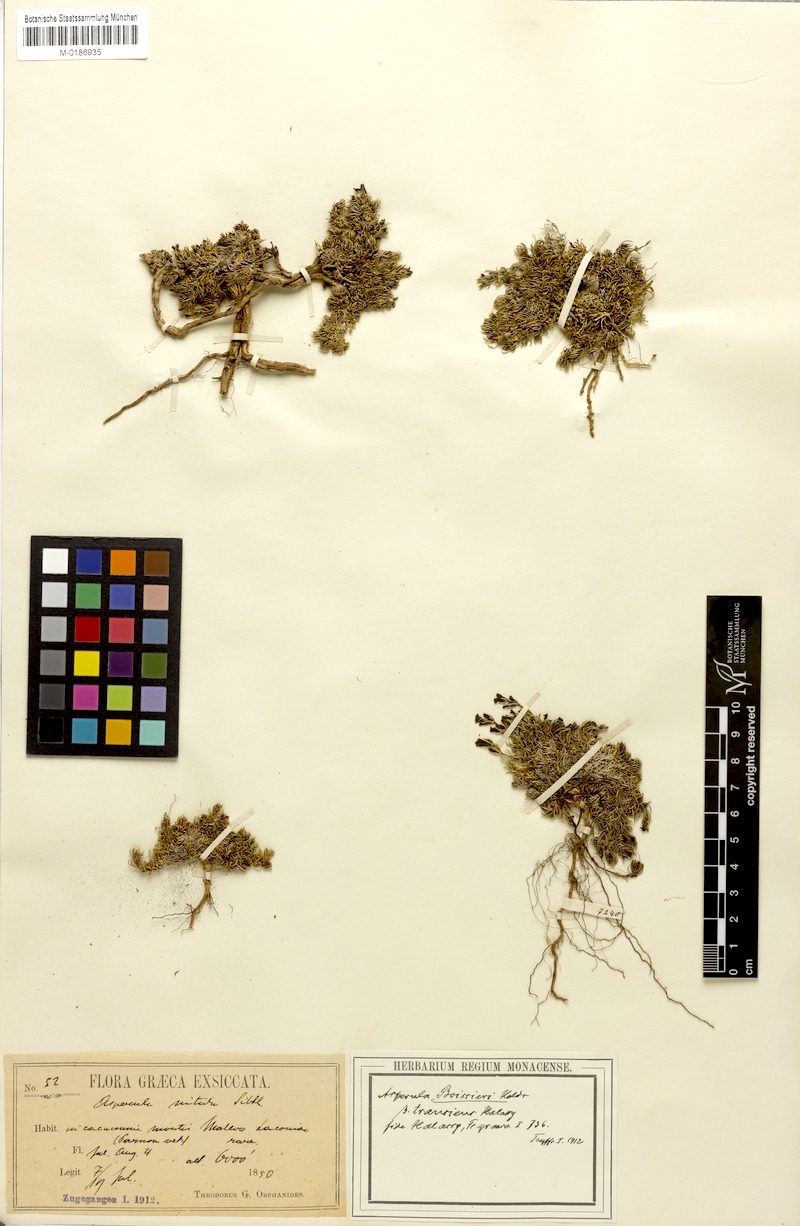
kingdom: Plantae
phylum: Tracheophyta
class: Magnoliopsida
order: Gentianales
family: Rubiaceae
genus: Cynanchica
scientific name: Cynanchica malevonensis
